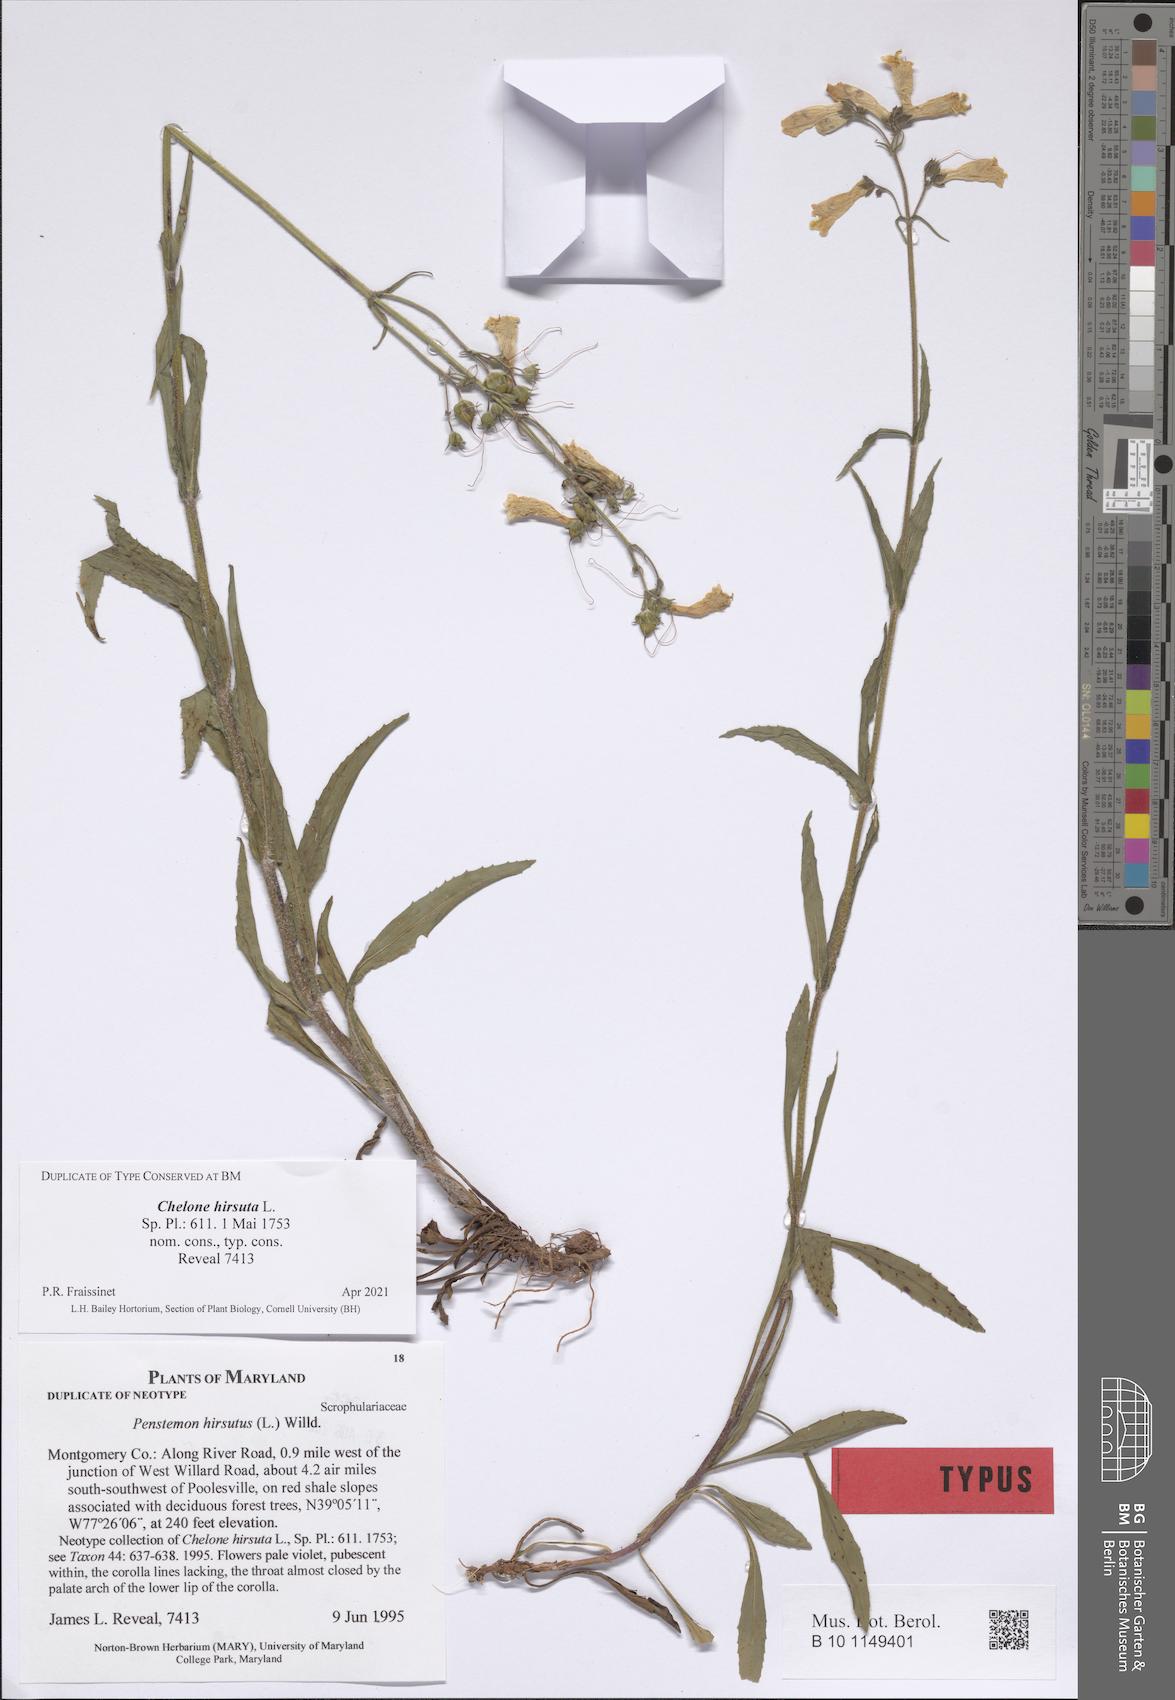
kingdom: Plantae
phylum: Tracheophyta
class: Magnoliopsida
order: Lamiales
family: Plantaginaceae
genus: Penstemon
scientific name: Penstemon hirsutus
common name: Hairy beardtongue
